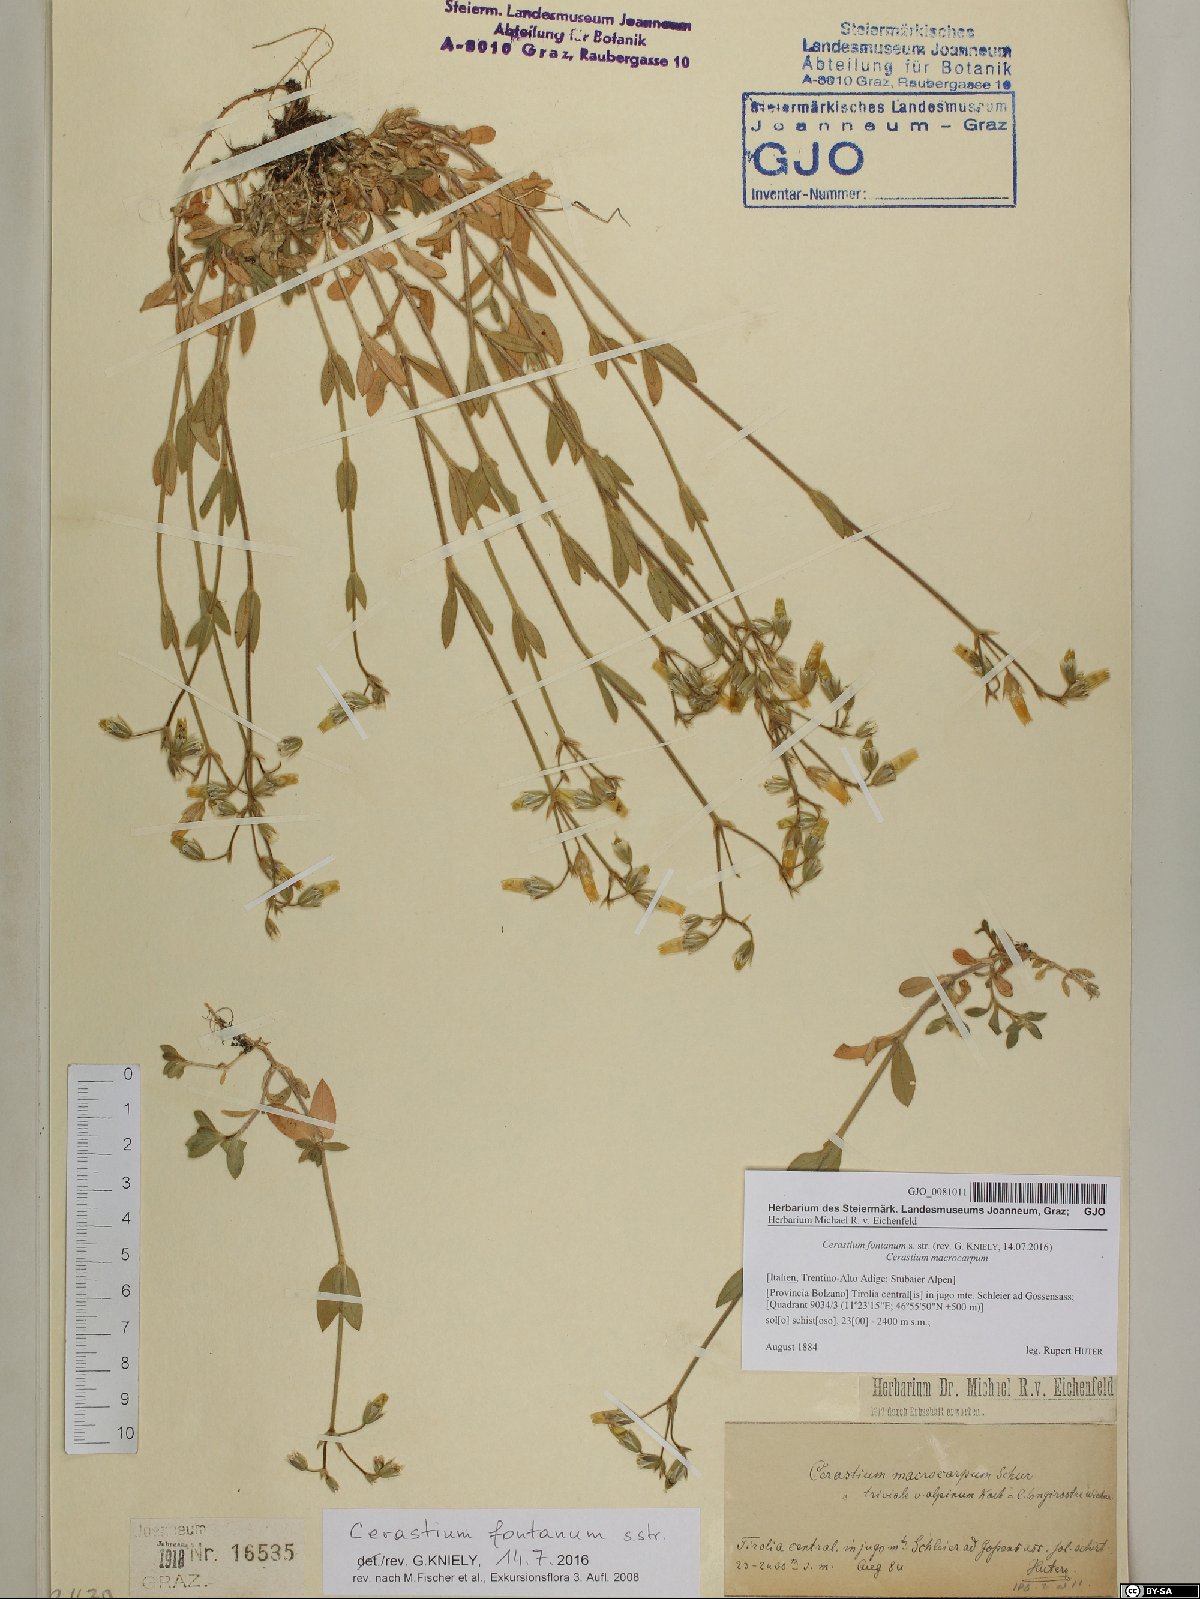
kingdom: Plantae
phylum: Tracheophyta
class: Magnoliopsida
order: Caryophyllales
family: Caryophyllaceae
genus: Cerastium
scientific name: Cerastium fontanum
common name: Common mouse-ear
